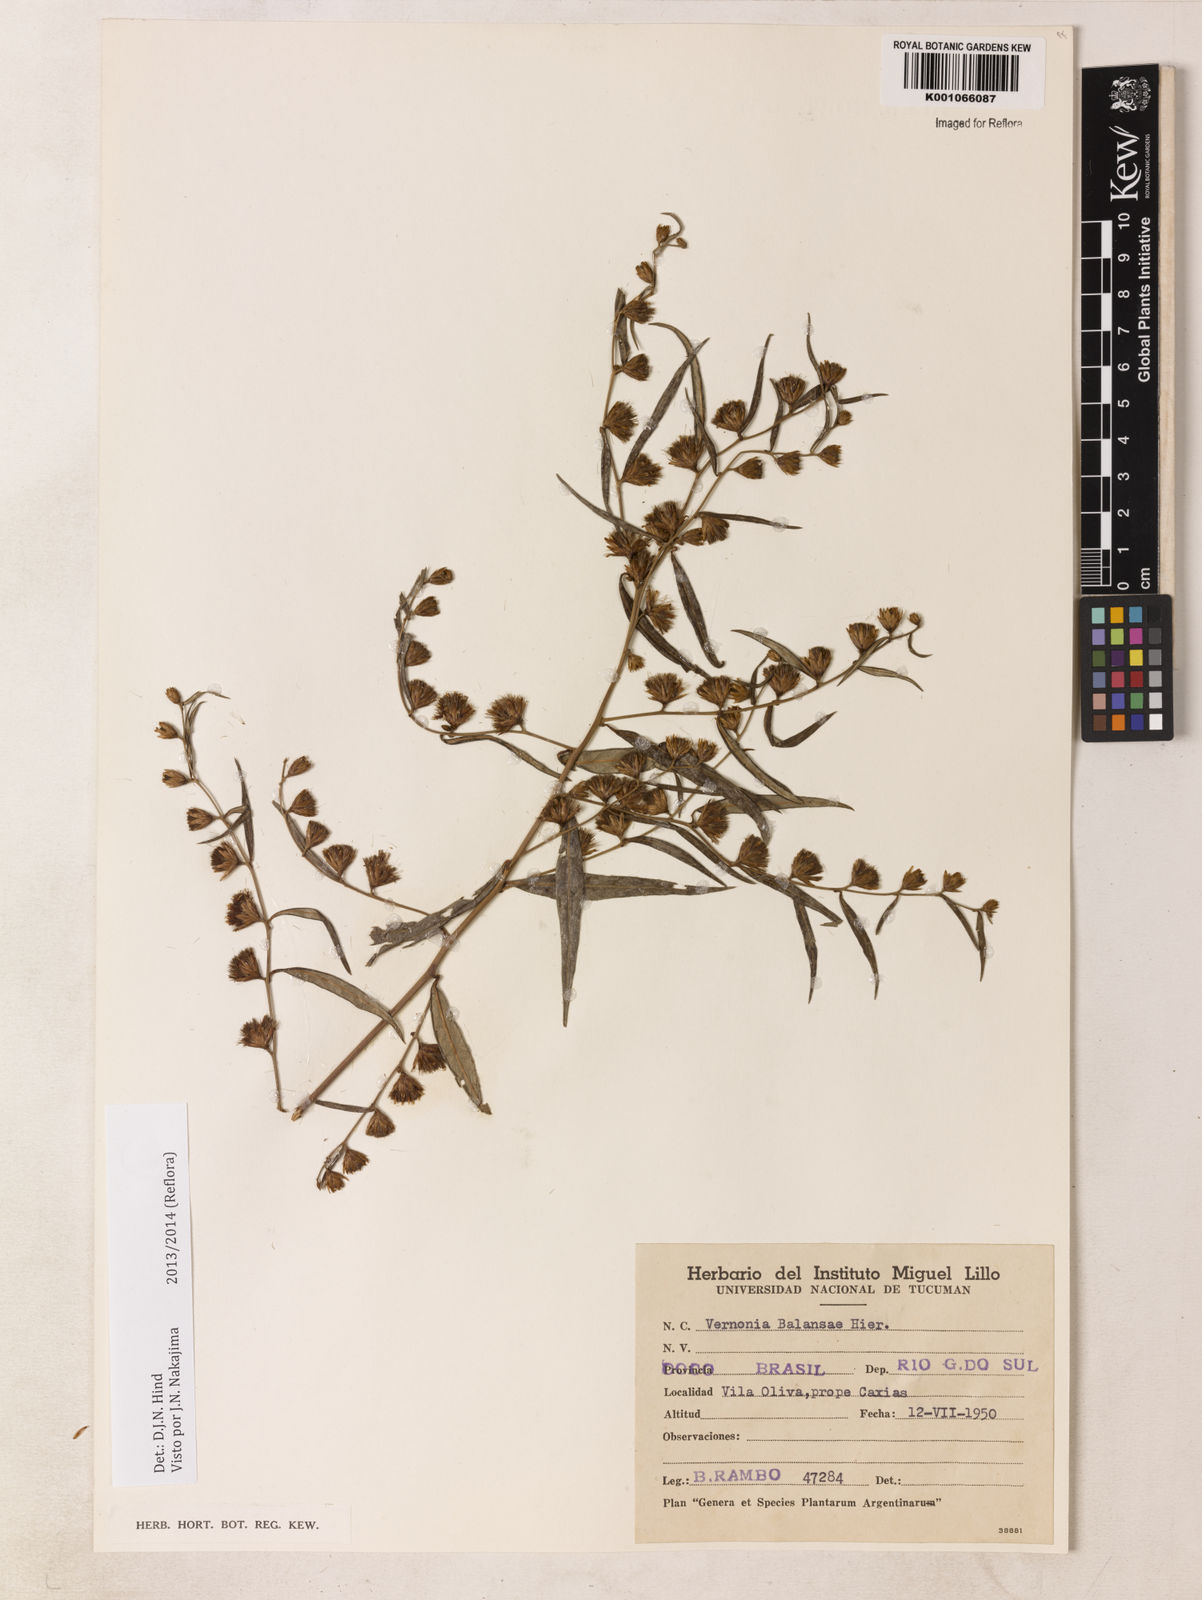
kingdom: Plantae
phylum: Tracheophyta
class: Magnoliopsida
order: Asterales
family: Asteraceae
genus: Vernonia
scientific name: Vernonia balansae
